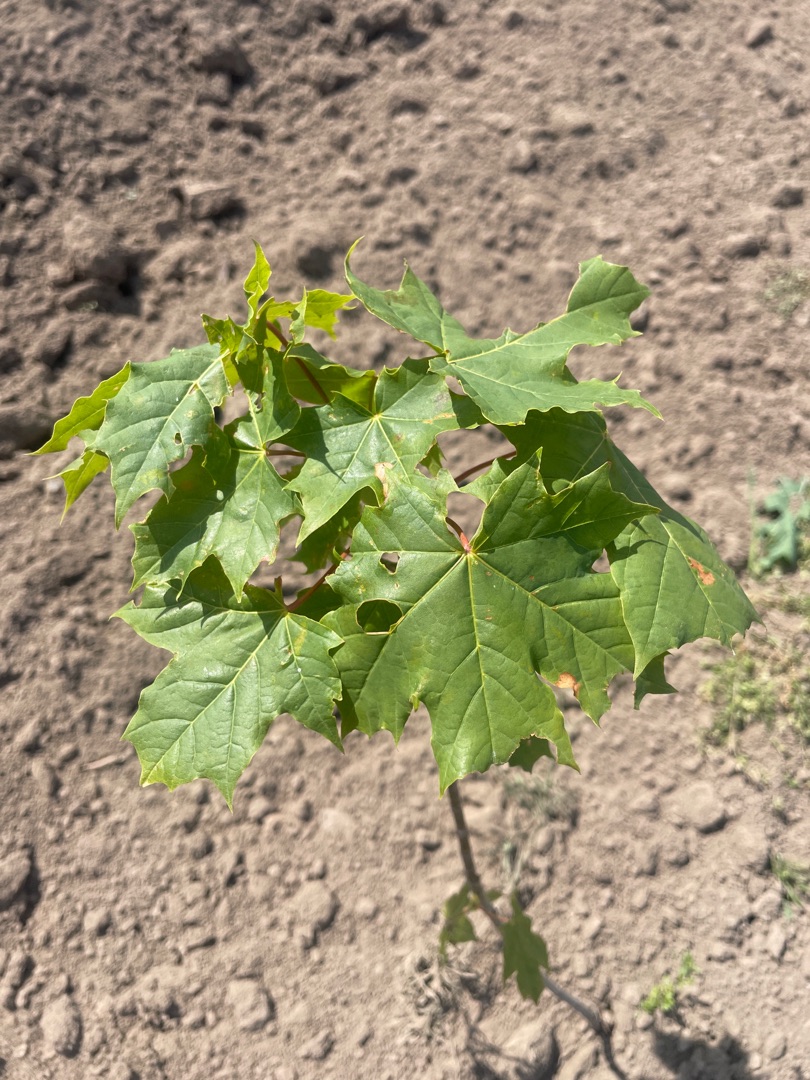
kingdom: Plantae
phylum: Tracheophyta
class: Magnoliopsida
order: Sapindales
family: Sapindaceae
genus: Acer
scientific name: Acer platanoides
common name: Spids-løn
